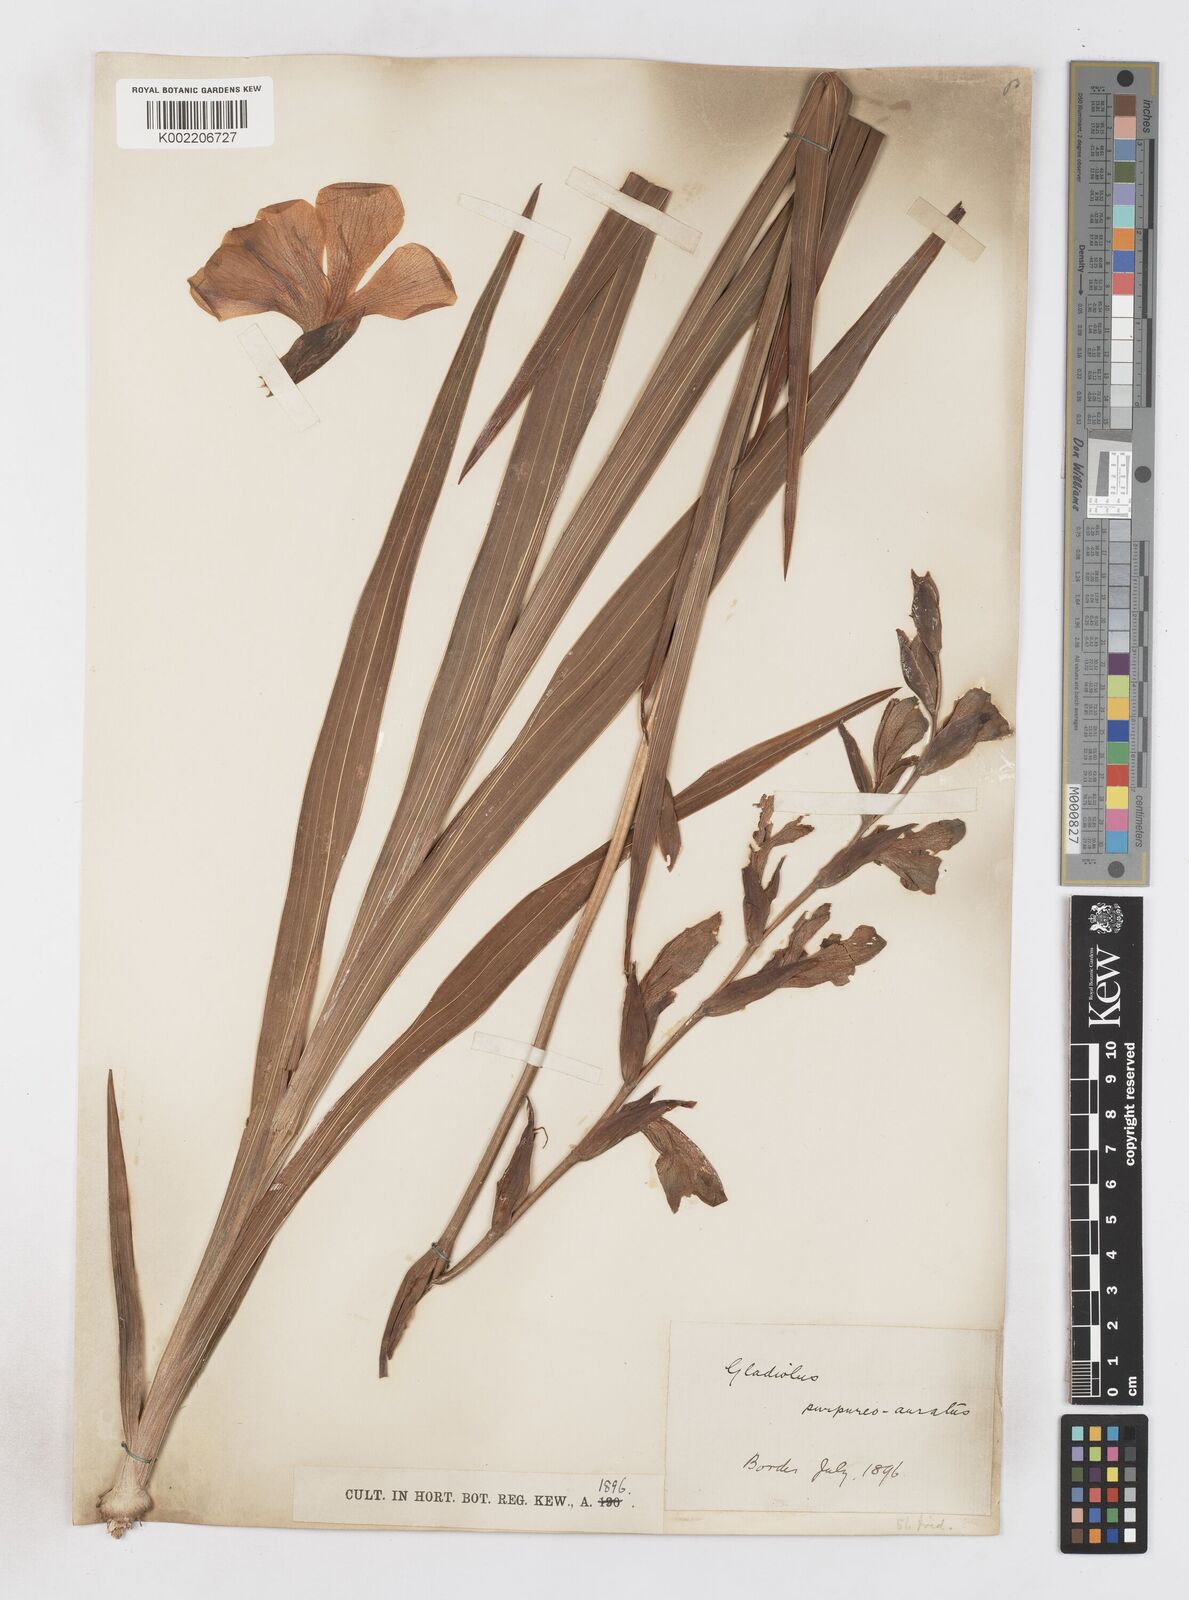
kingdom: Plantae
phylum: Tracheophyta
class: Liliopsida
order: Asparagales
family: Iridaceae
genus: Gladiolus
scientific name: Gladiolus papilio
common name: Goldblotch gladiolus
